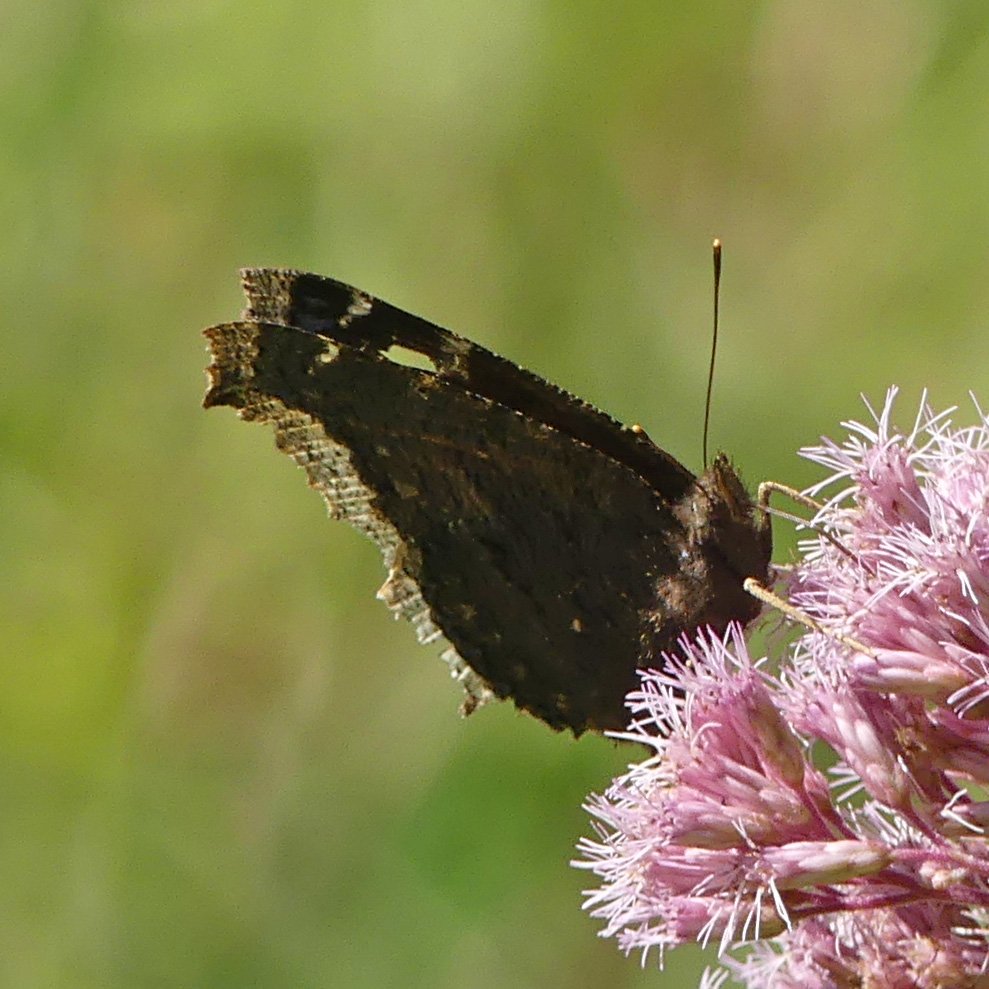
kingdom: Animalia
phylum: Arthropoda
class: Insecta
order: Lepidoptera
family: Nymphalidae
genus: Nymphalis
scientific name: Nymphalis antiopa
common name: Mourning Cloak
